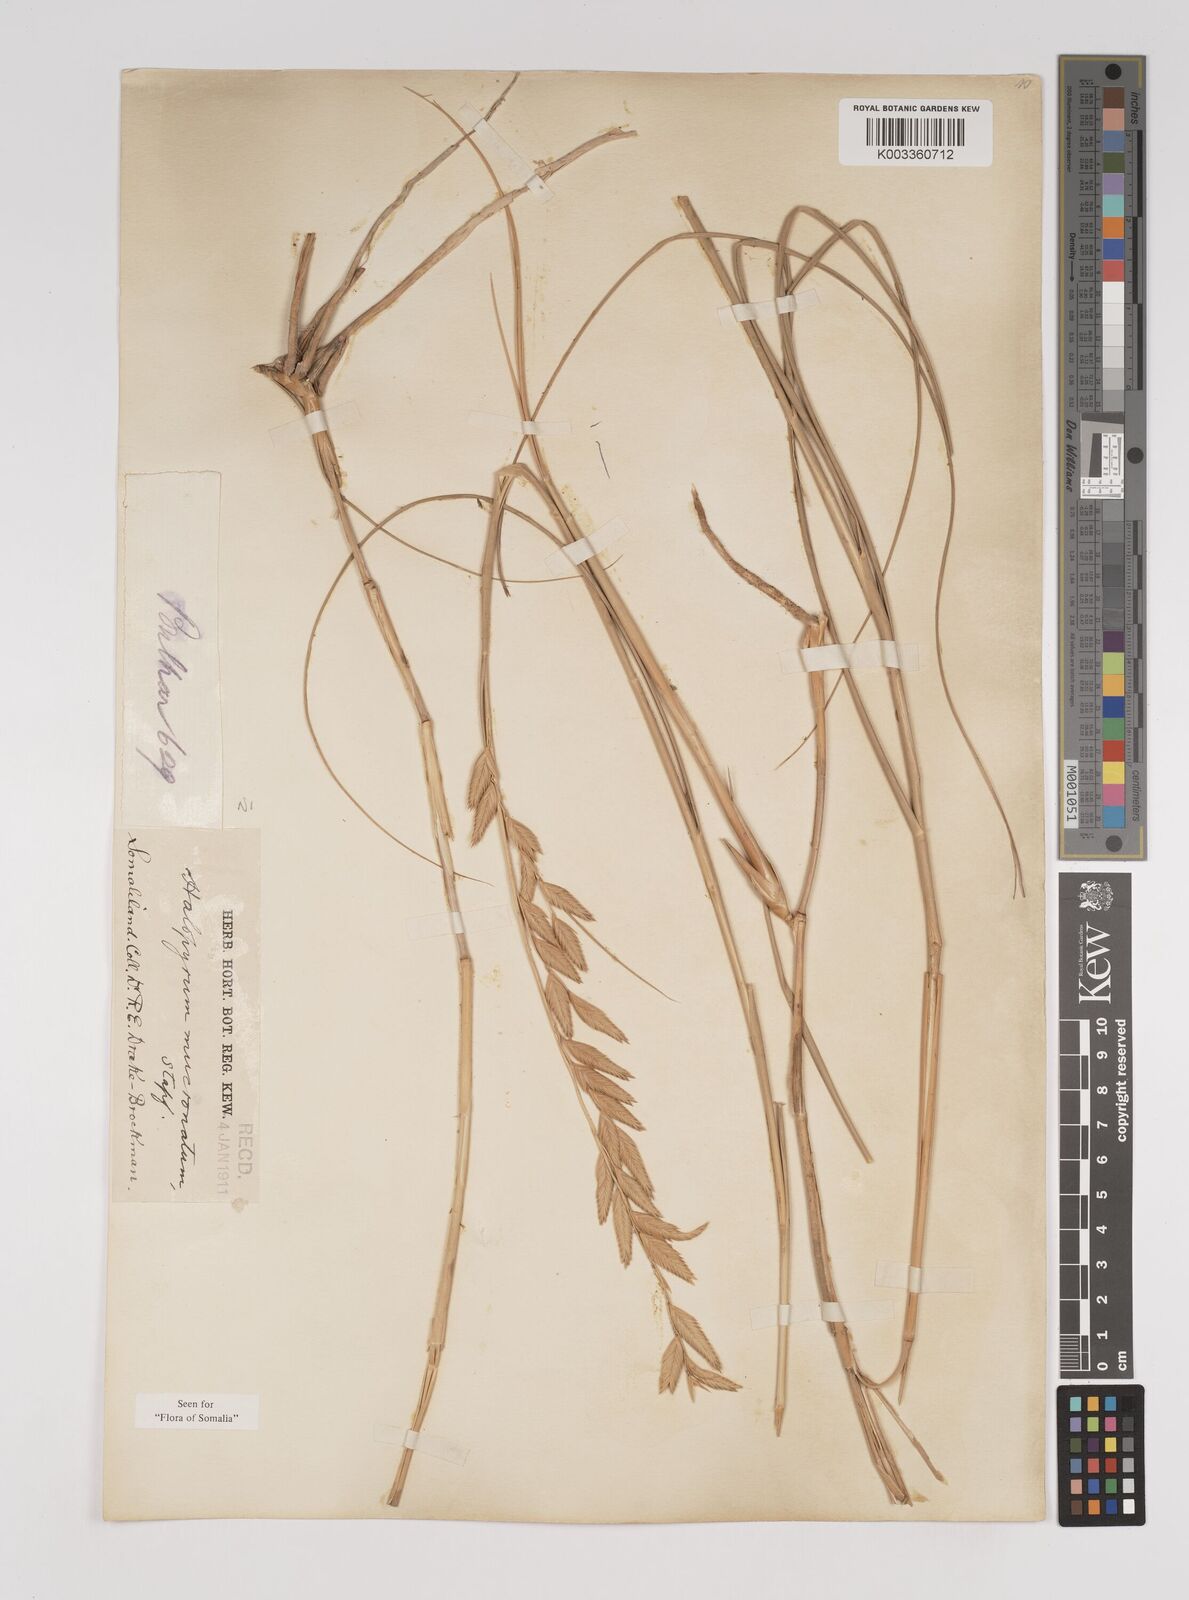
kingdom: Plantae
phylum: Tracheophyta
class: Liliopsida
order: Poales
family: Poaceae
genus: Halopyrum
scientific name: Halopyrum mucronatum
